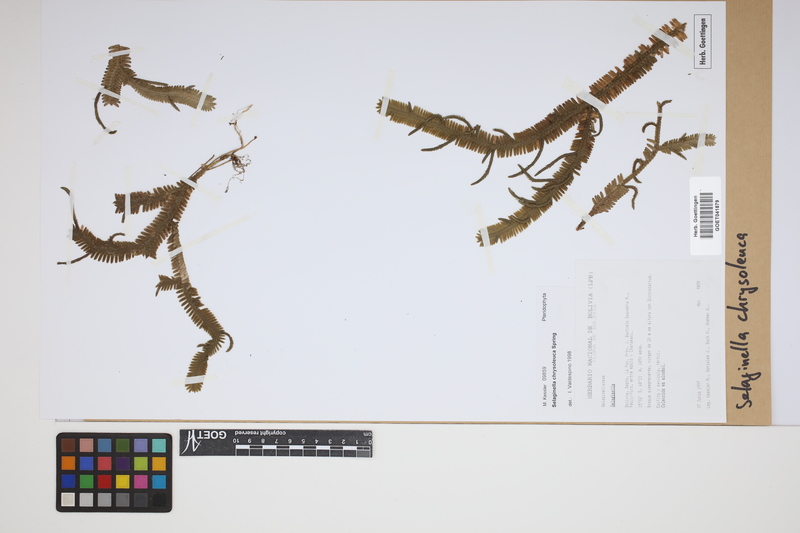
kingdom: Plantae
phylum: Tracheophyta
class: Lycopodiopsida
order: Selaginellales
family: Selaginellaceae
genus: Selaginella
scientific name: Selaginella chrysoleuca
